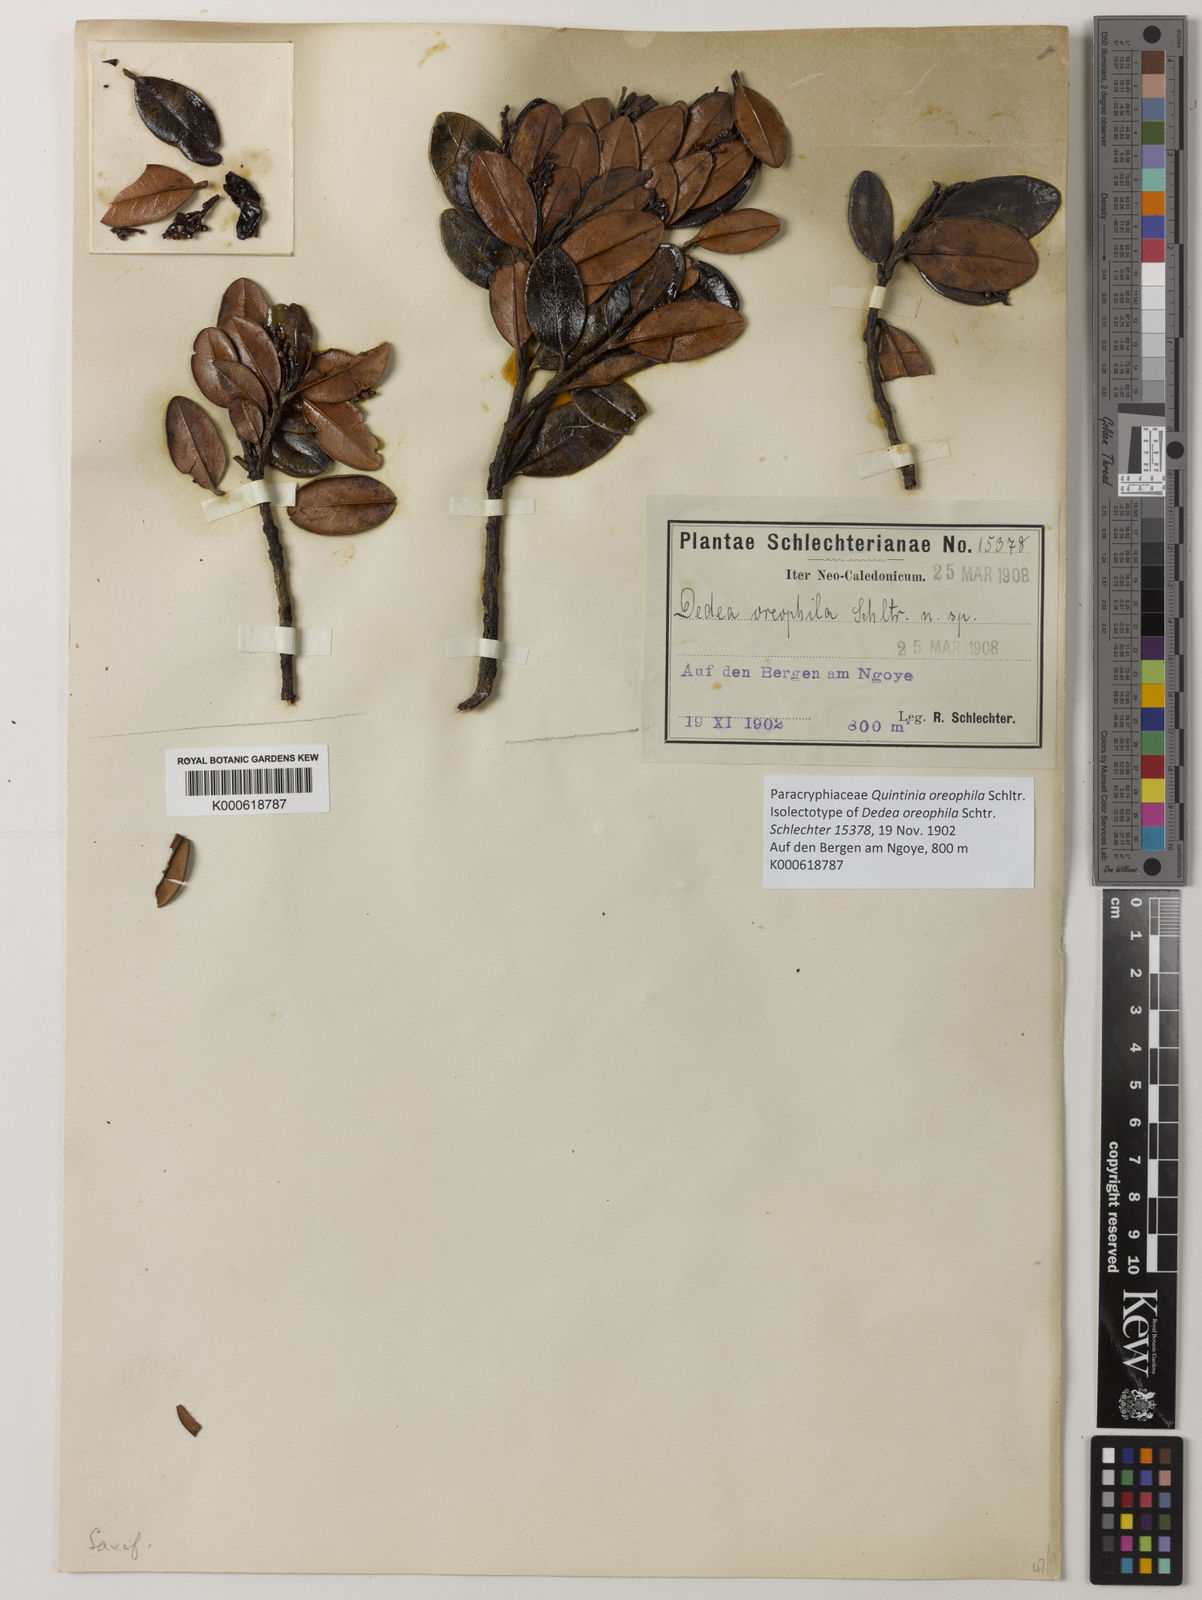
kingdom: Plantae
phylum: Tracheophyta
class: Magnoliopsida
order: Paracryphiales
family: Paracryphiaceae
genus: Quintinia
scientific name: Quintinia oreophila
